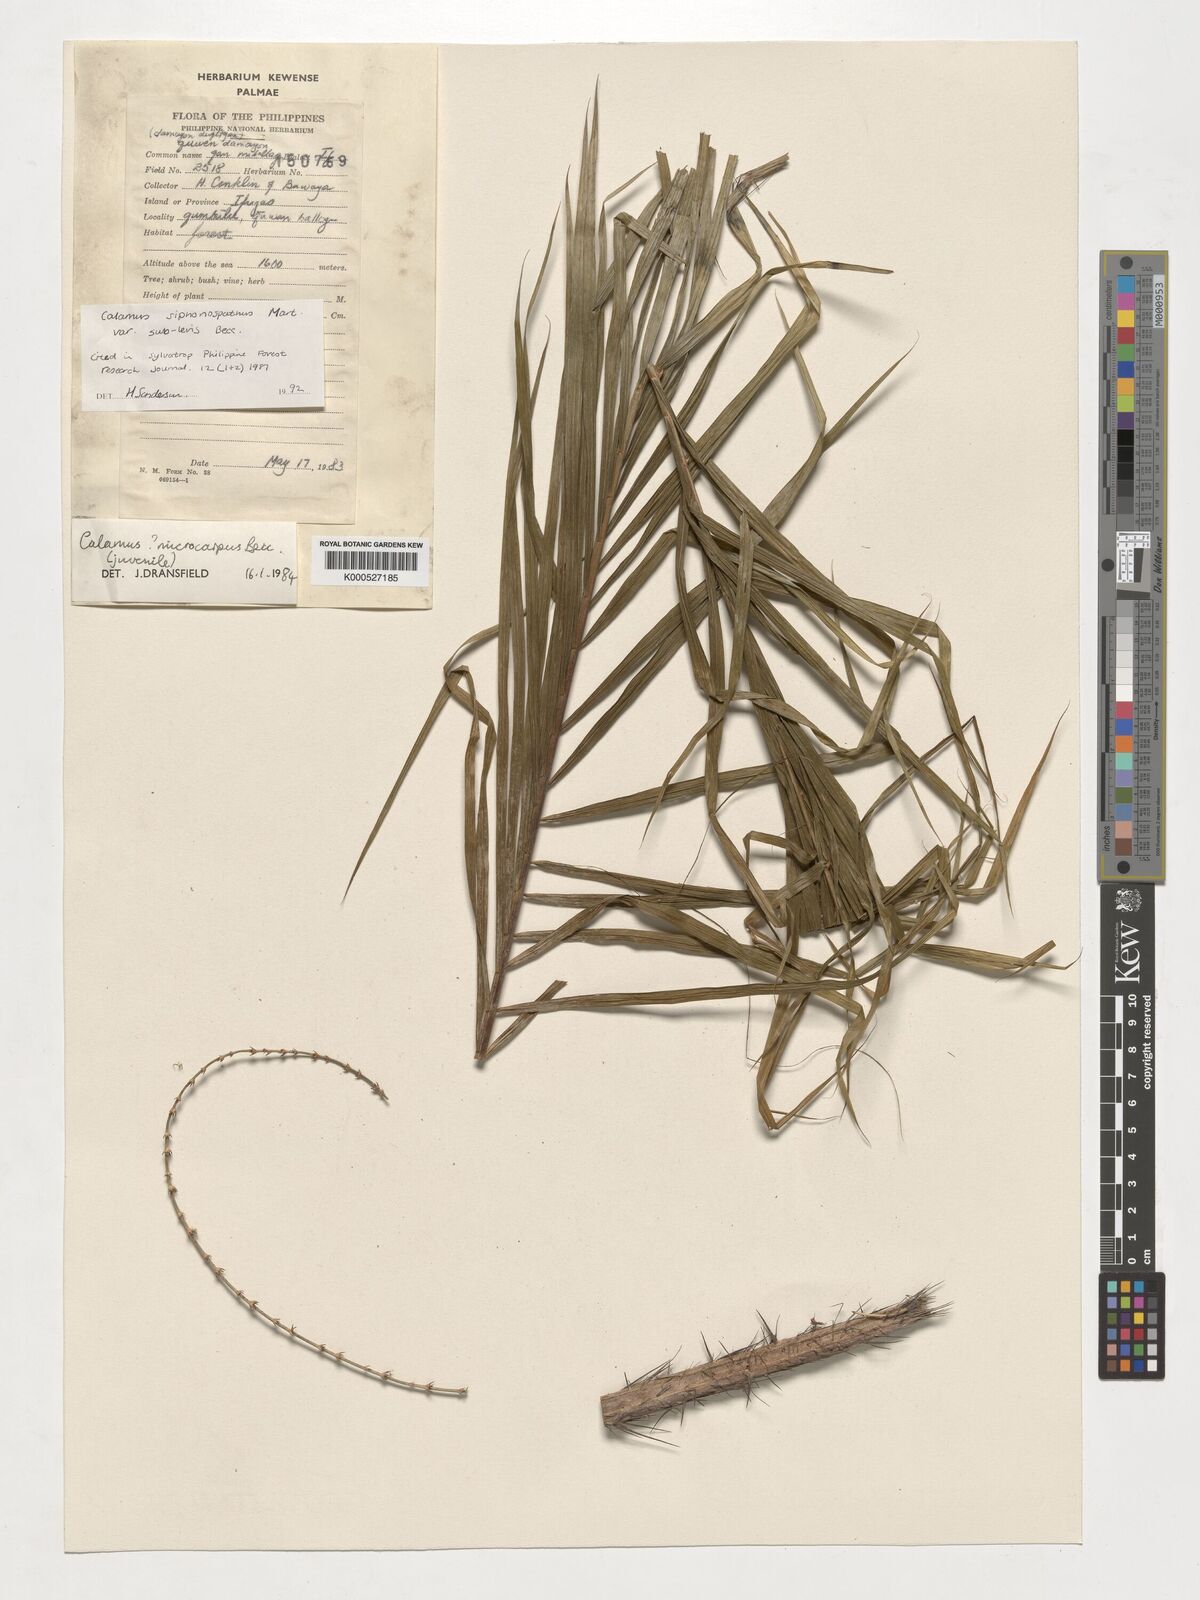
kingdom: Plantae
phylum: Tracheophyta
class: Liliopsida
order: Arecales
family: Arecaceae
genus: Calamus
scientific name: Calamus siphonospathus
